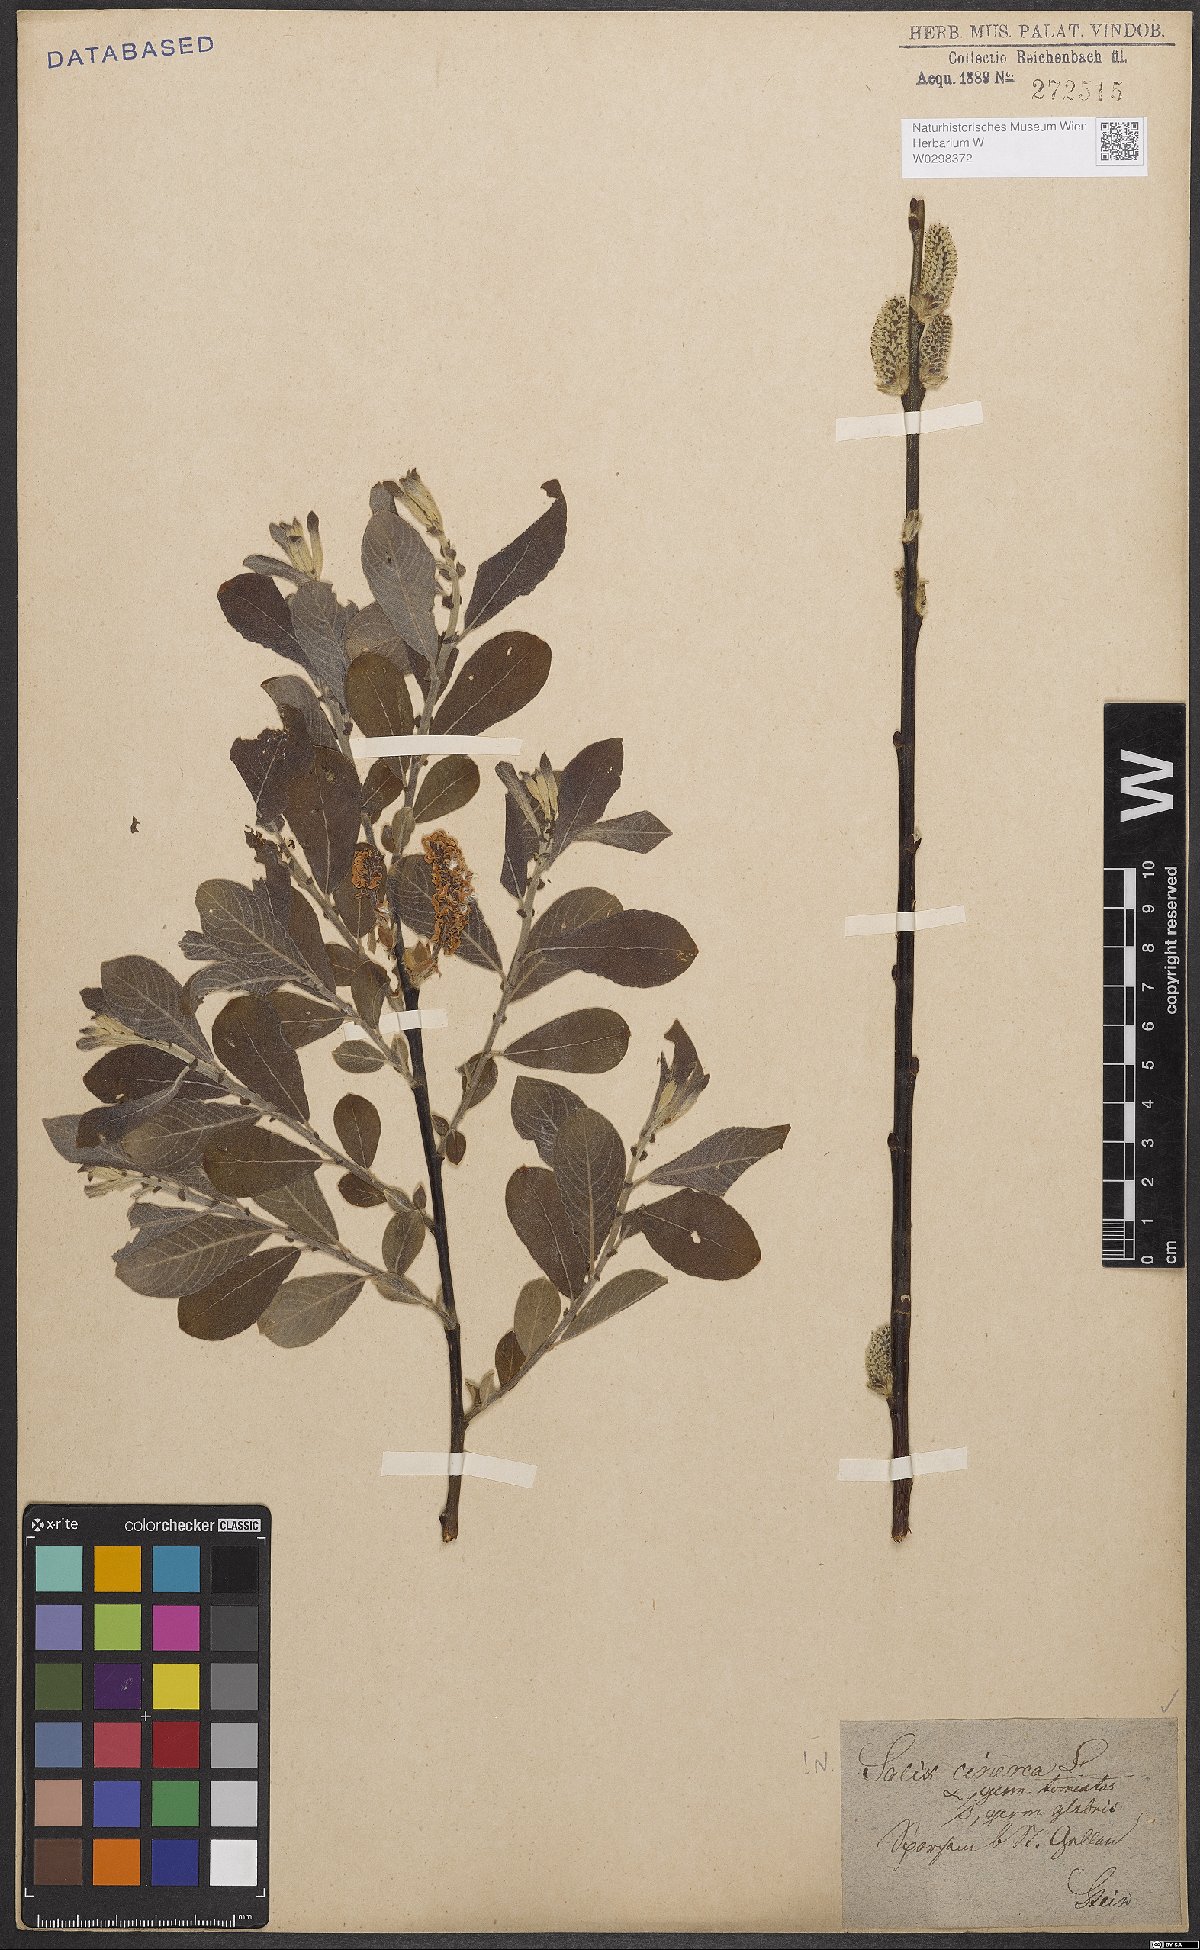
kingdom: Plantae
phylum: Tracheophyta
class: Magnoliopsida
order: Malpighiales
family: Salicaceae
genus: Salix
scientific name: Salix cinerea
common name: Common sallow
